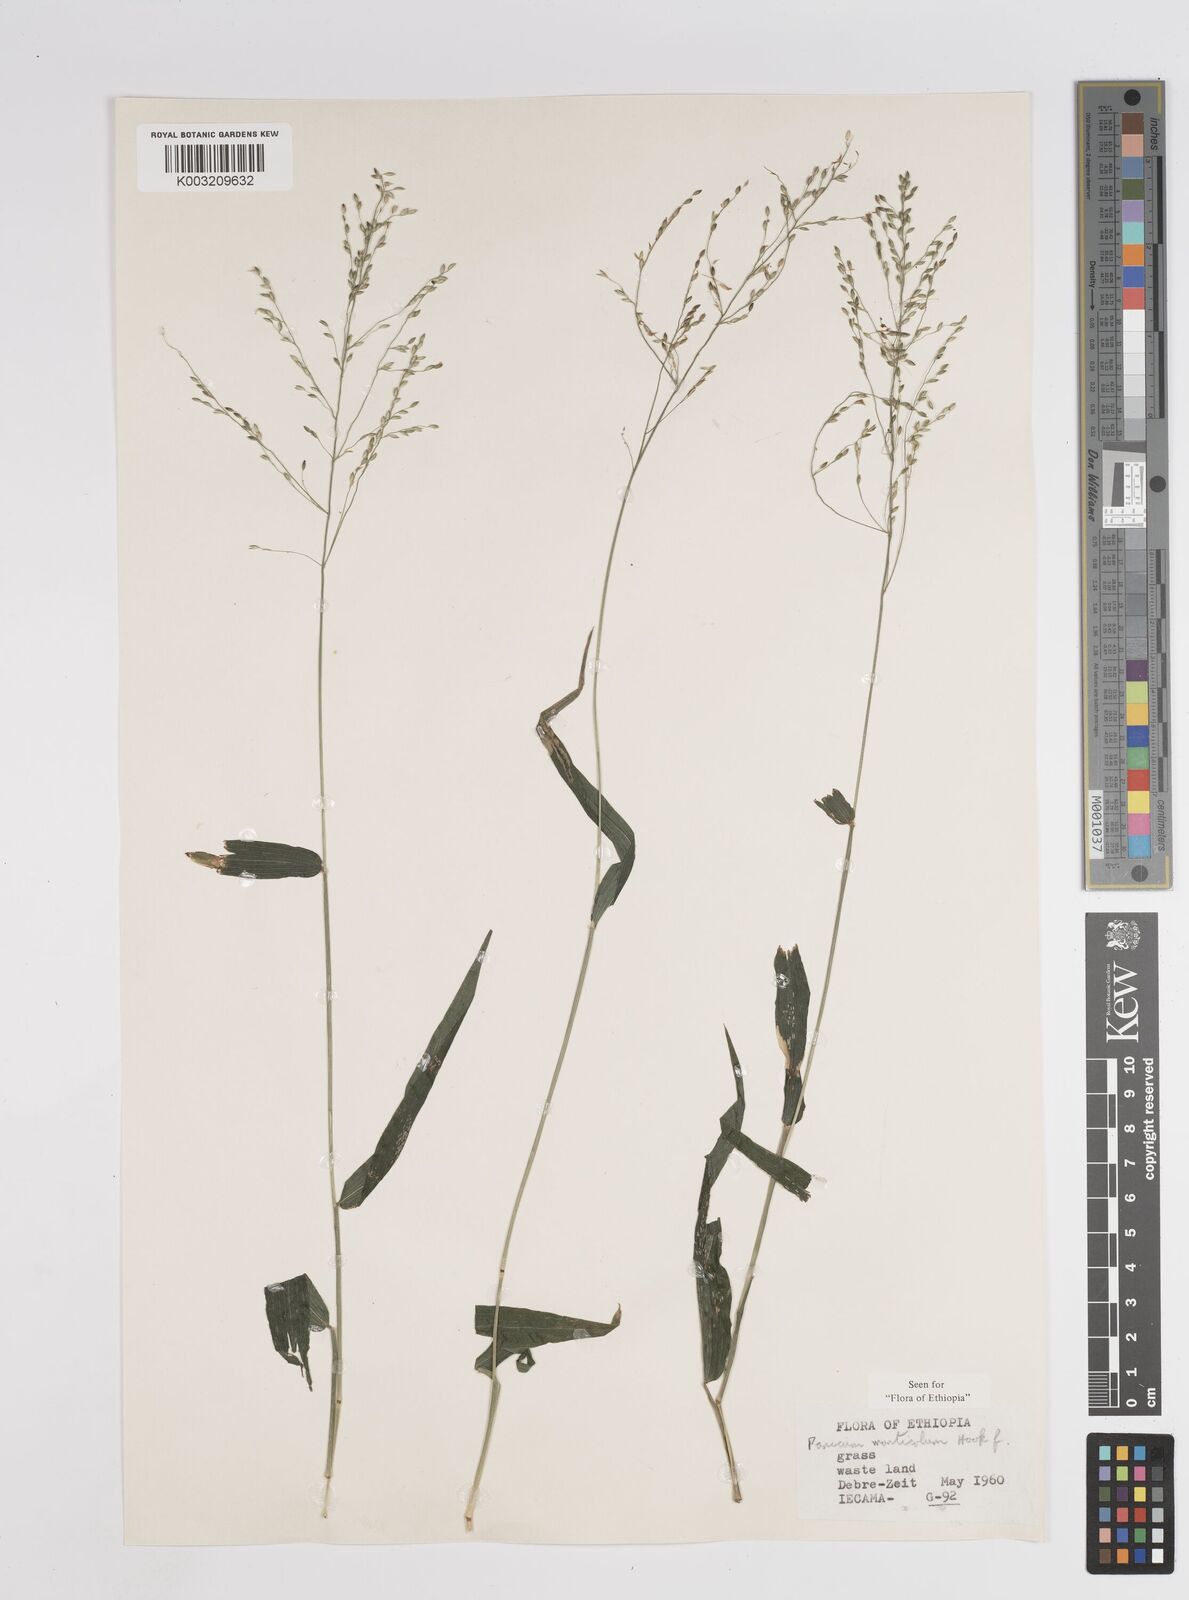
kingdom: Plantae
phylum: Tracheophyta
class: Liliopsida
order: Poales
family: Poaceae
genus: Panicum
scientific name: Panicum monticola
